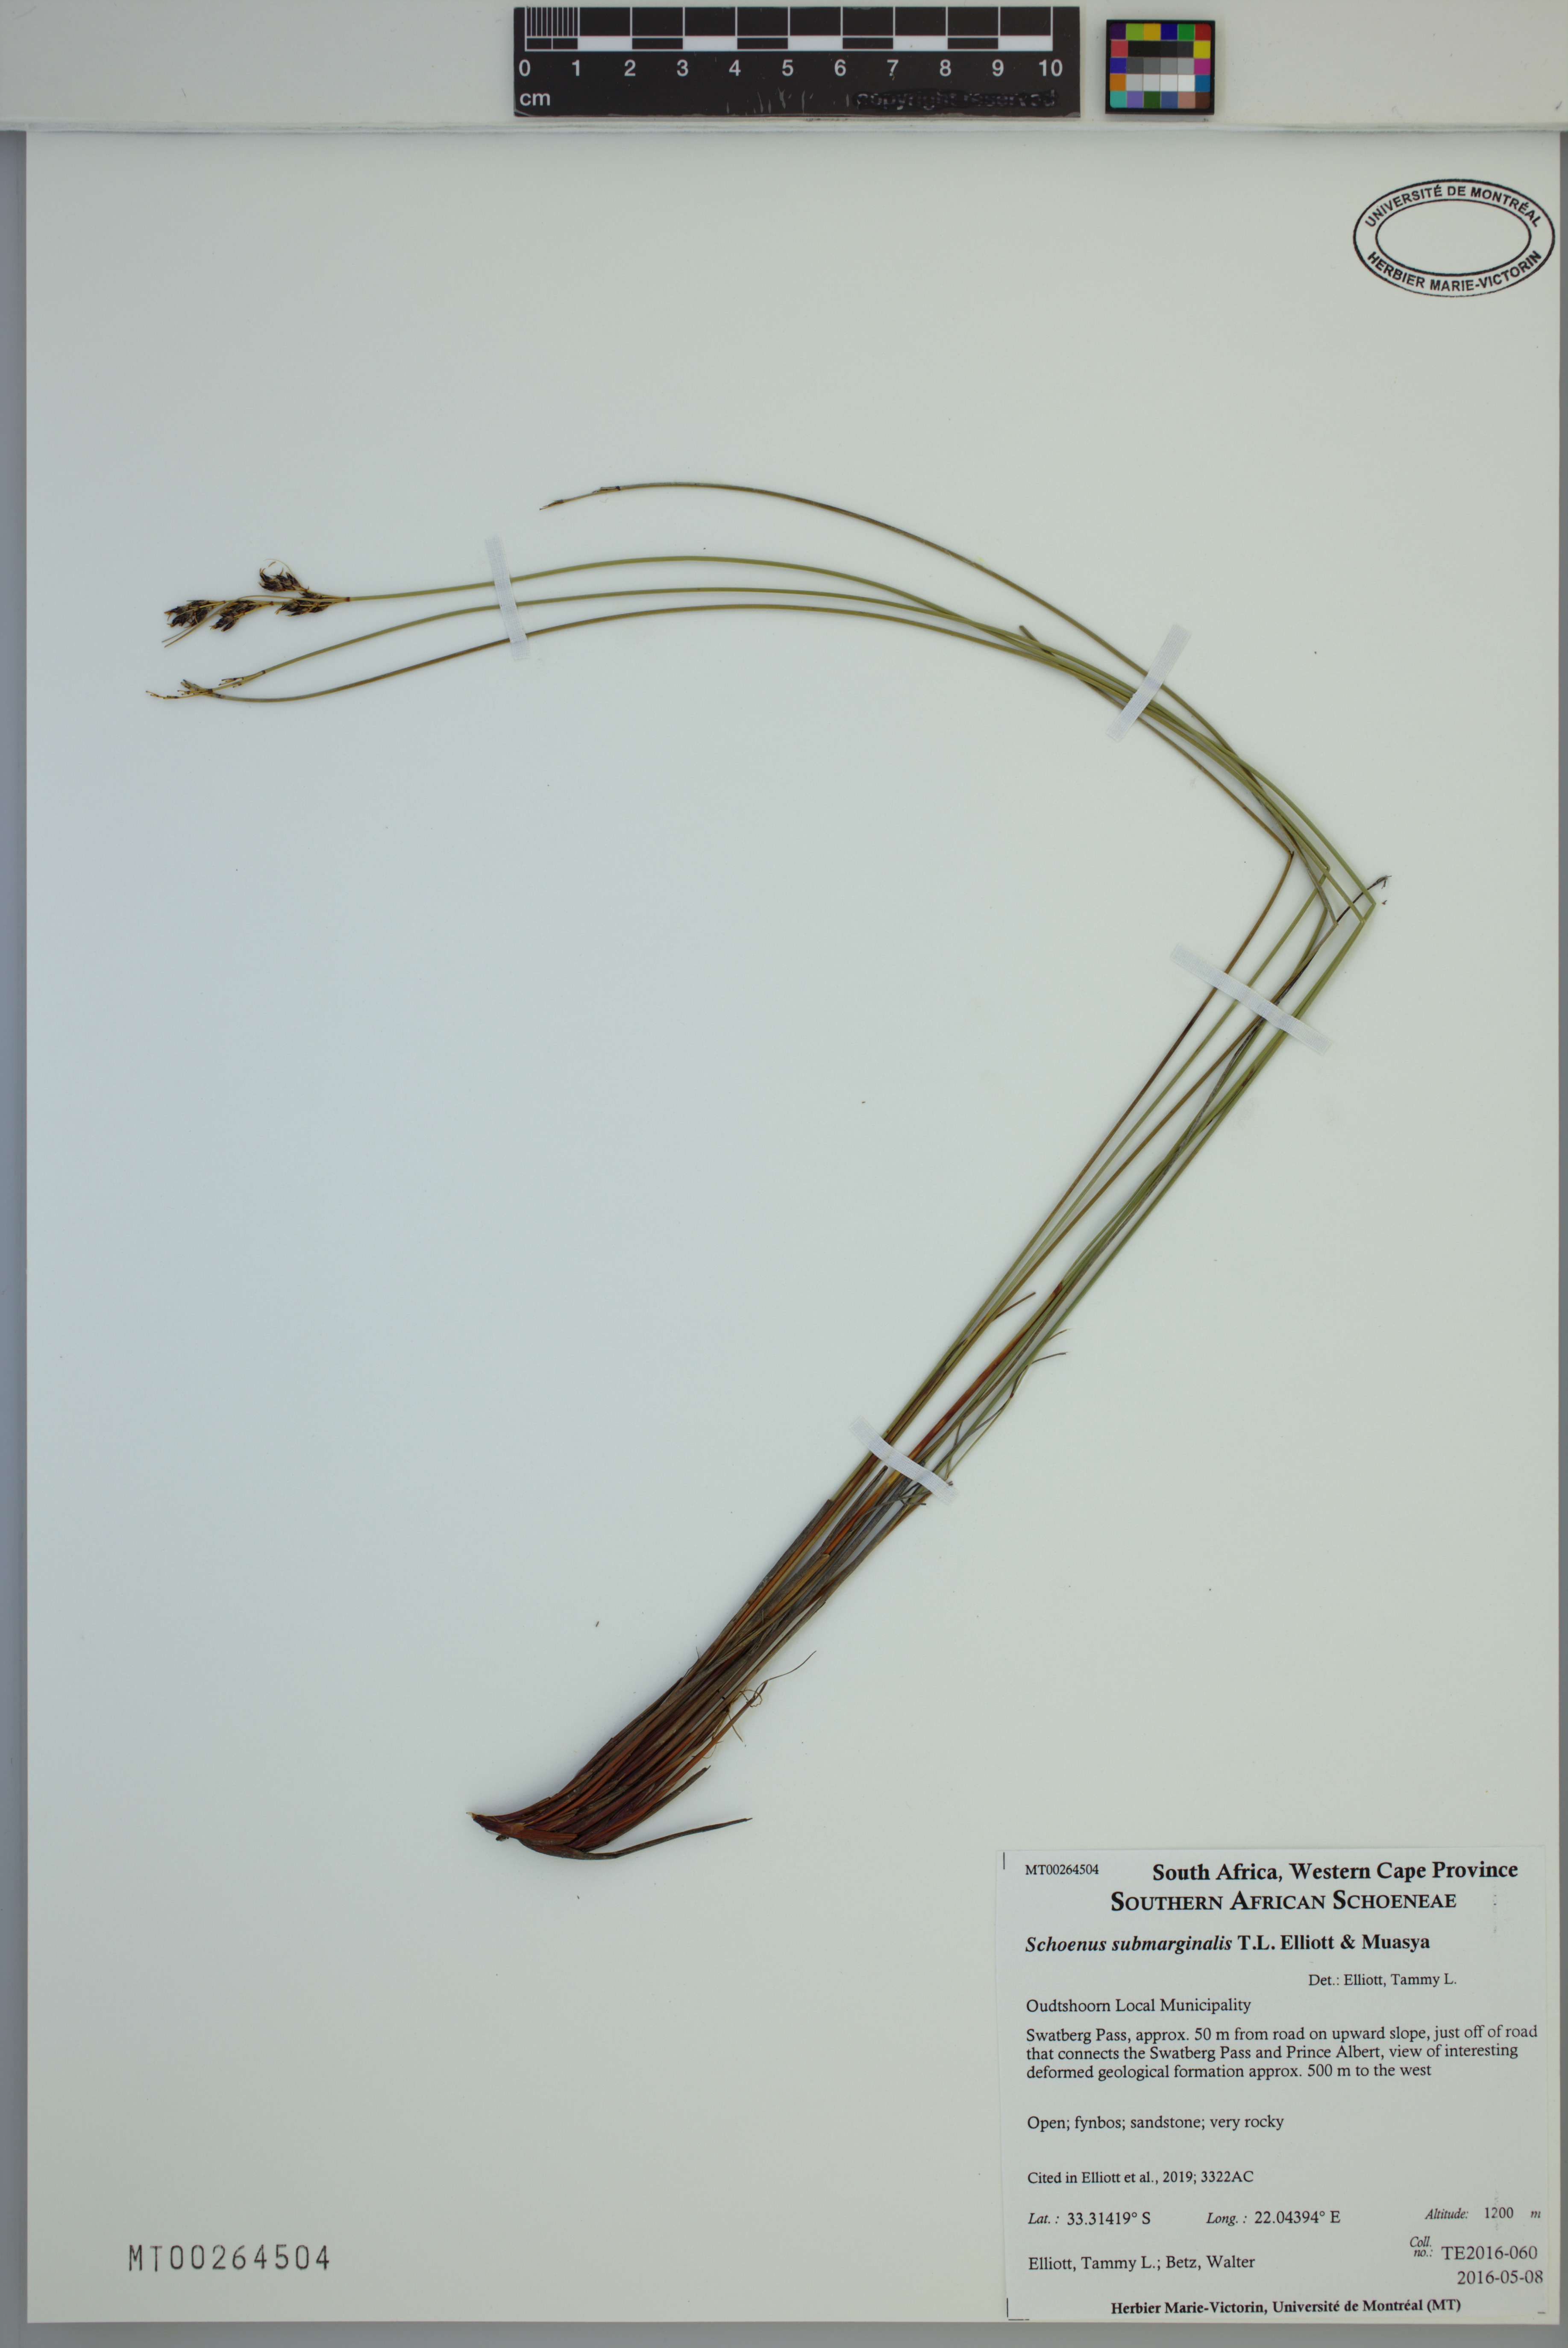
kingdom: Plantae
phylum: Tracheophyta
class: Liliopsida
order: Poales
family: Cyperaceae
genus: Schoenus
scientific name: Schoenus submarginalis
